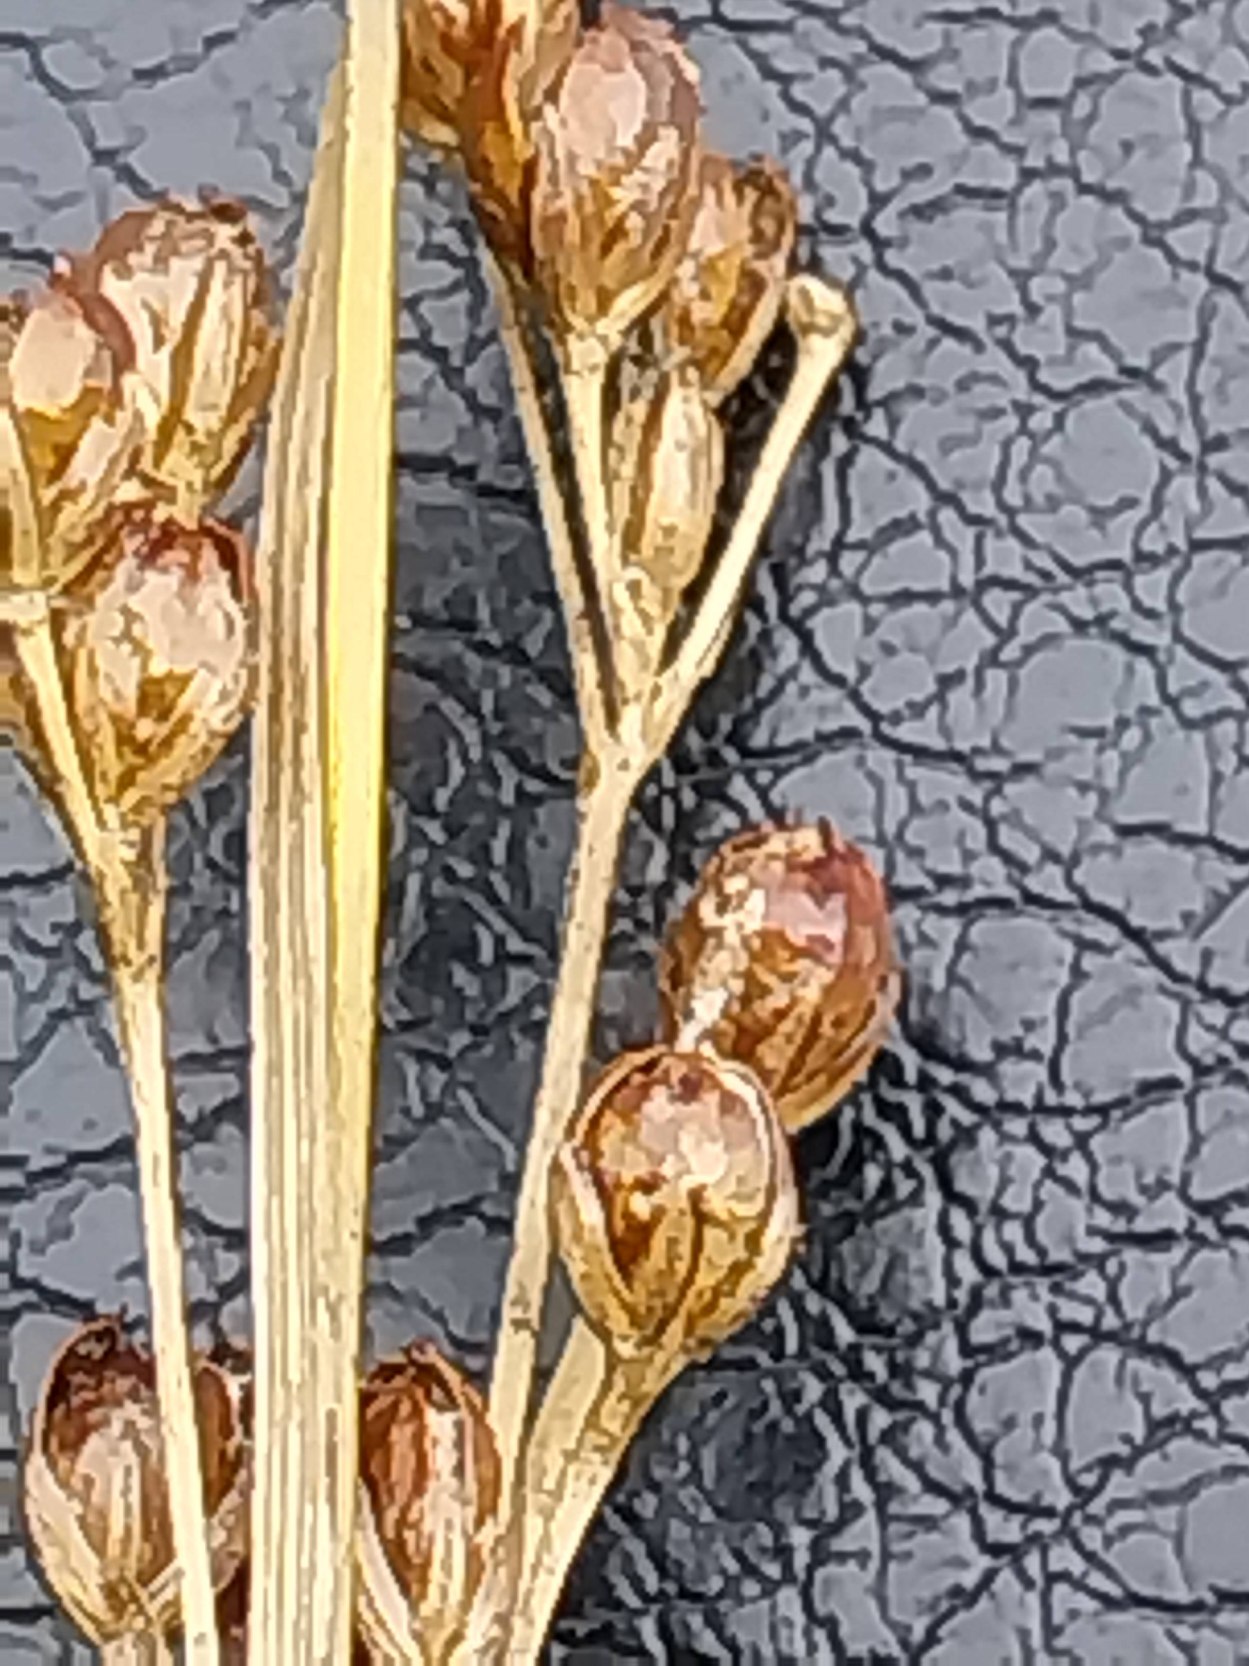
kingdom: Plantae
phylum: Tracheophyta
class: Liliopsida
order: Poales
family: Juncaceae
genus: Juncus
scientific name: Juncus compressus
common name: Fladstrået siv
